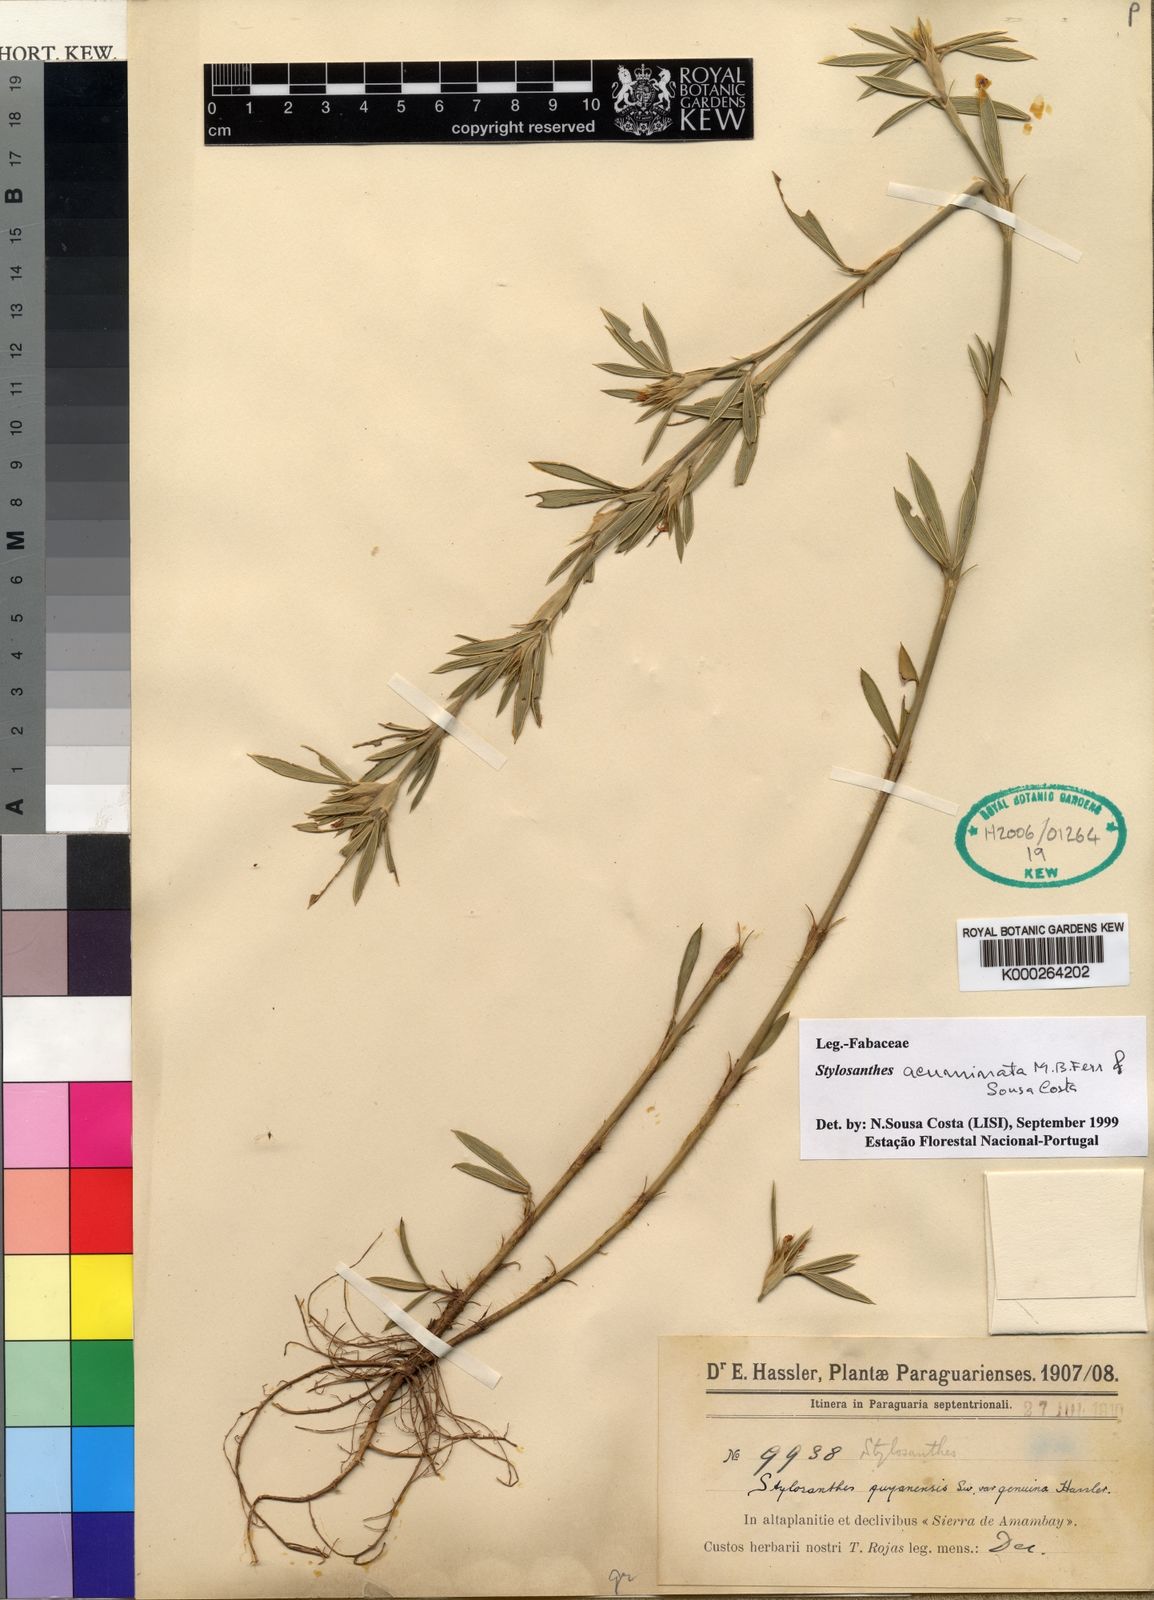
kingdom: Plantae
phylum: Tracheophyta
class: Magnoliopsida
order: Fabales
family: Fabaceae
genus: Stylosanthes
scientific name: Stylosanthes guianensis
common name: Pencil flower
